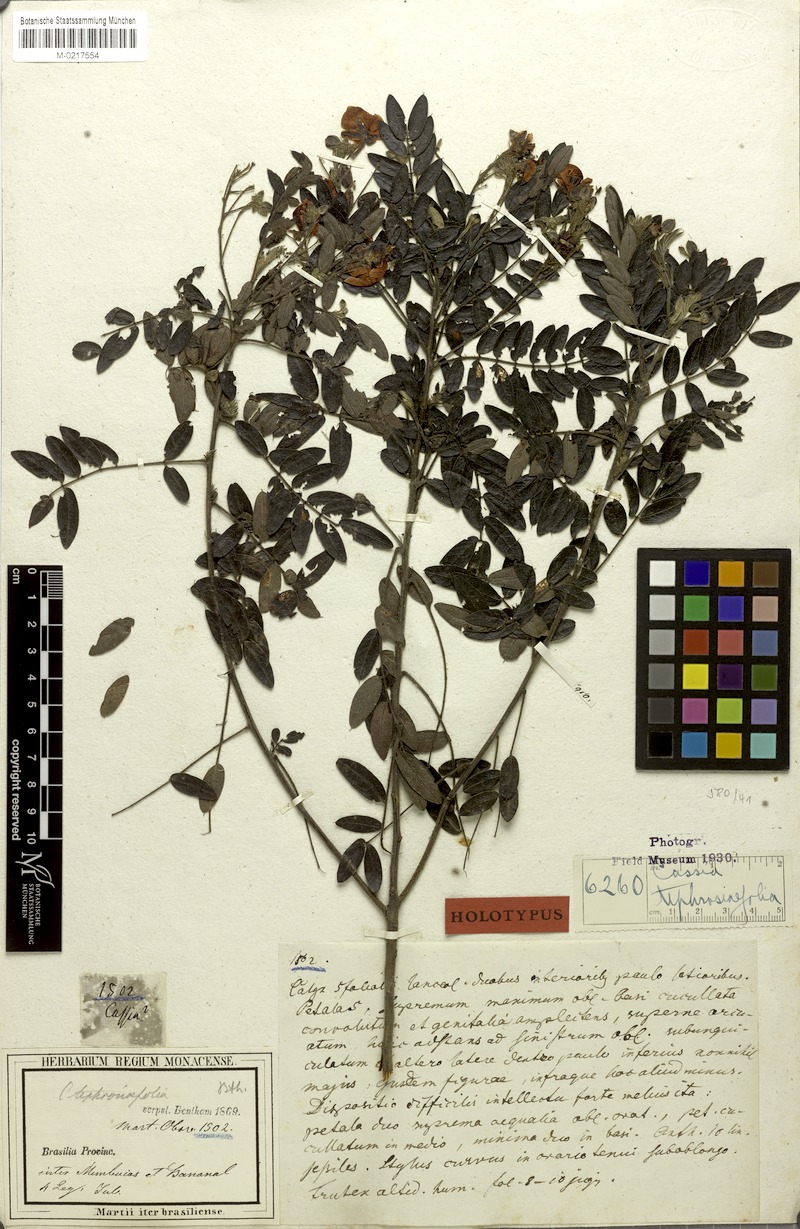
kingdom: Plantae
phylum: Tracheophyta
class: Magnoliopsida
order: Fabales
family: Fabaceae
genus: Chamaecrista
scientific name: Chamaecrista tephrosiifolia
